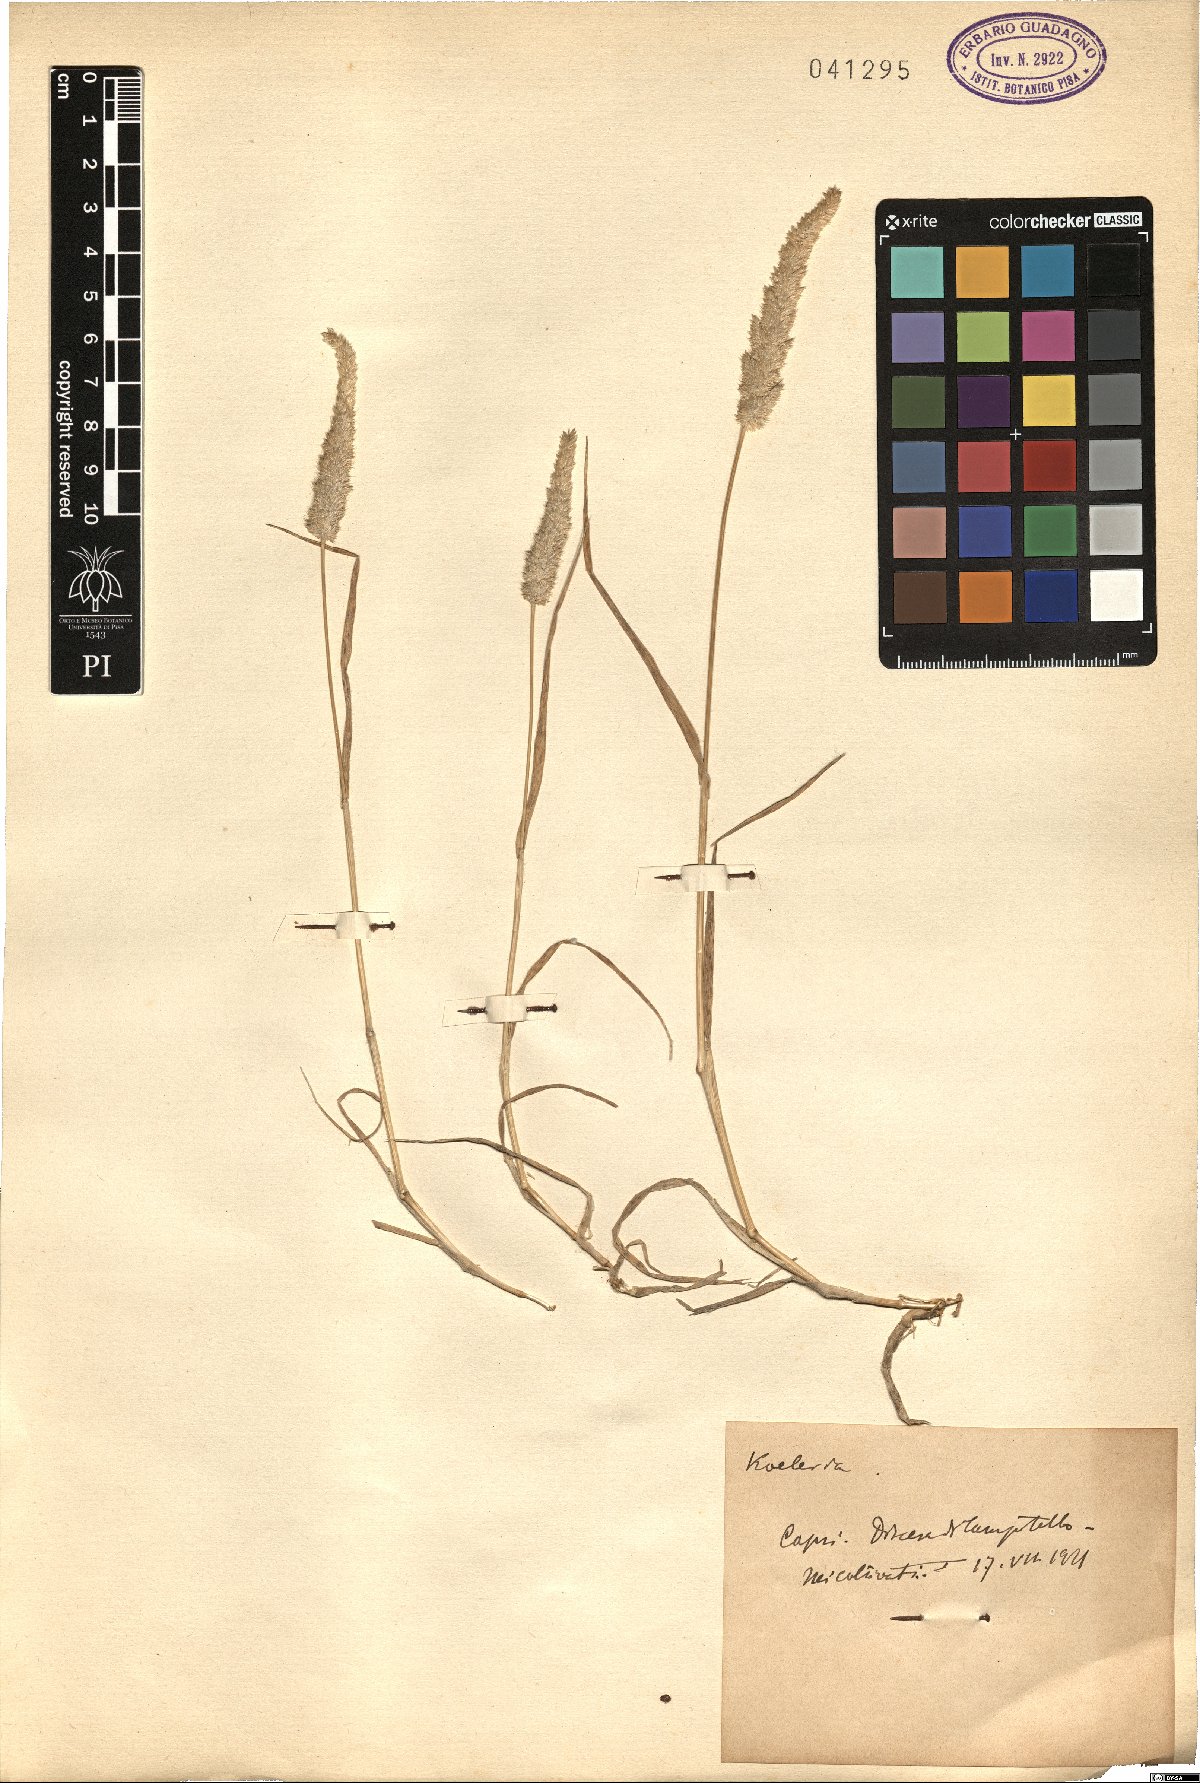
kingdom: Plantae
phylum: Tracheophyta
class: Liliopsida
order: Poales
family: Poaceae
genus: Koeleria
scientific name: Koeleria
